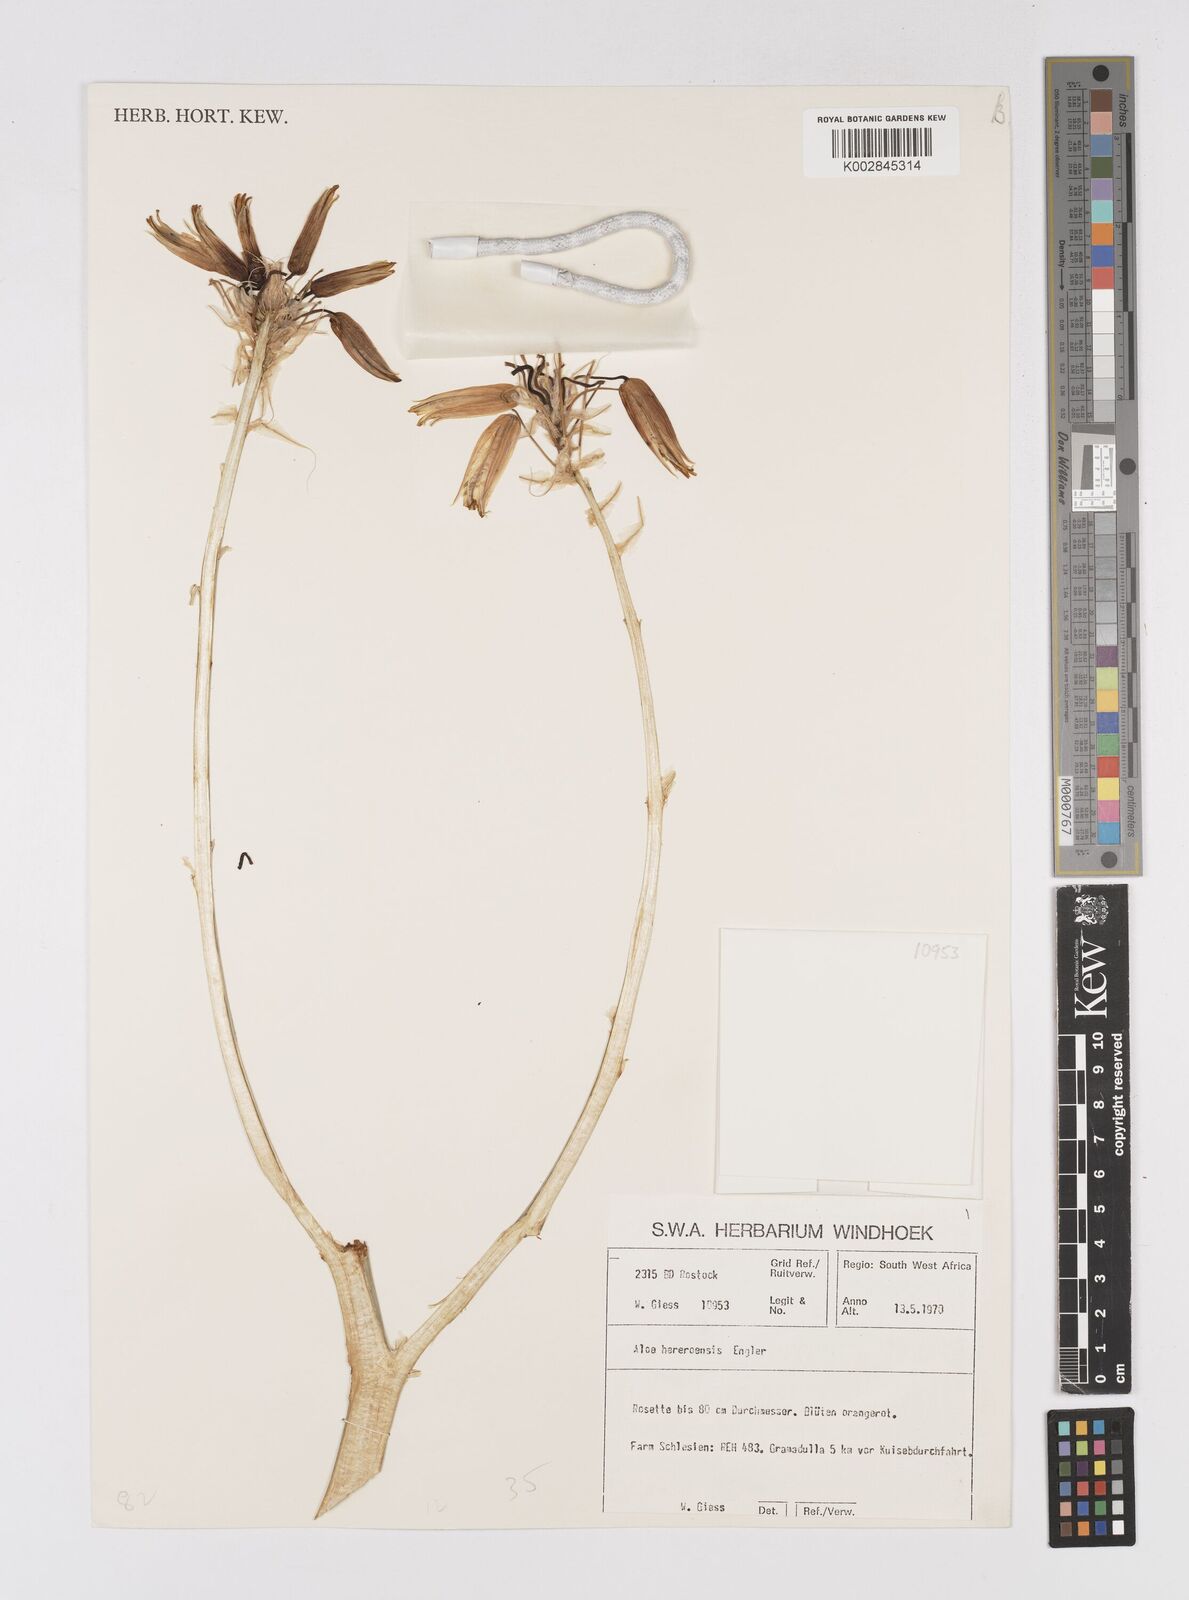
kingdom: Plantae
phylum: Tracheophyta
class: Liliopsida
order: Asparagales
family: Asphodelaceae
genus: Aloe
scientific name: Aloe hereroensis
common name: Herero aloe
